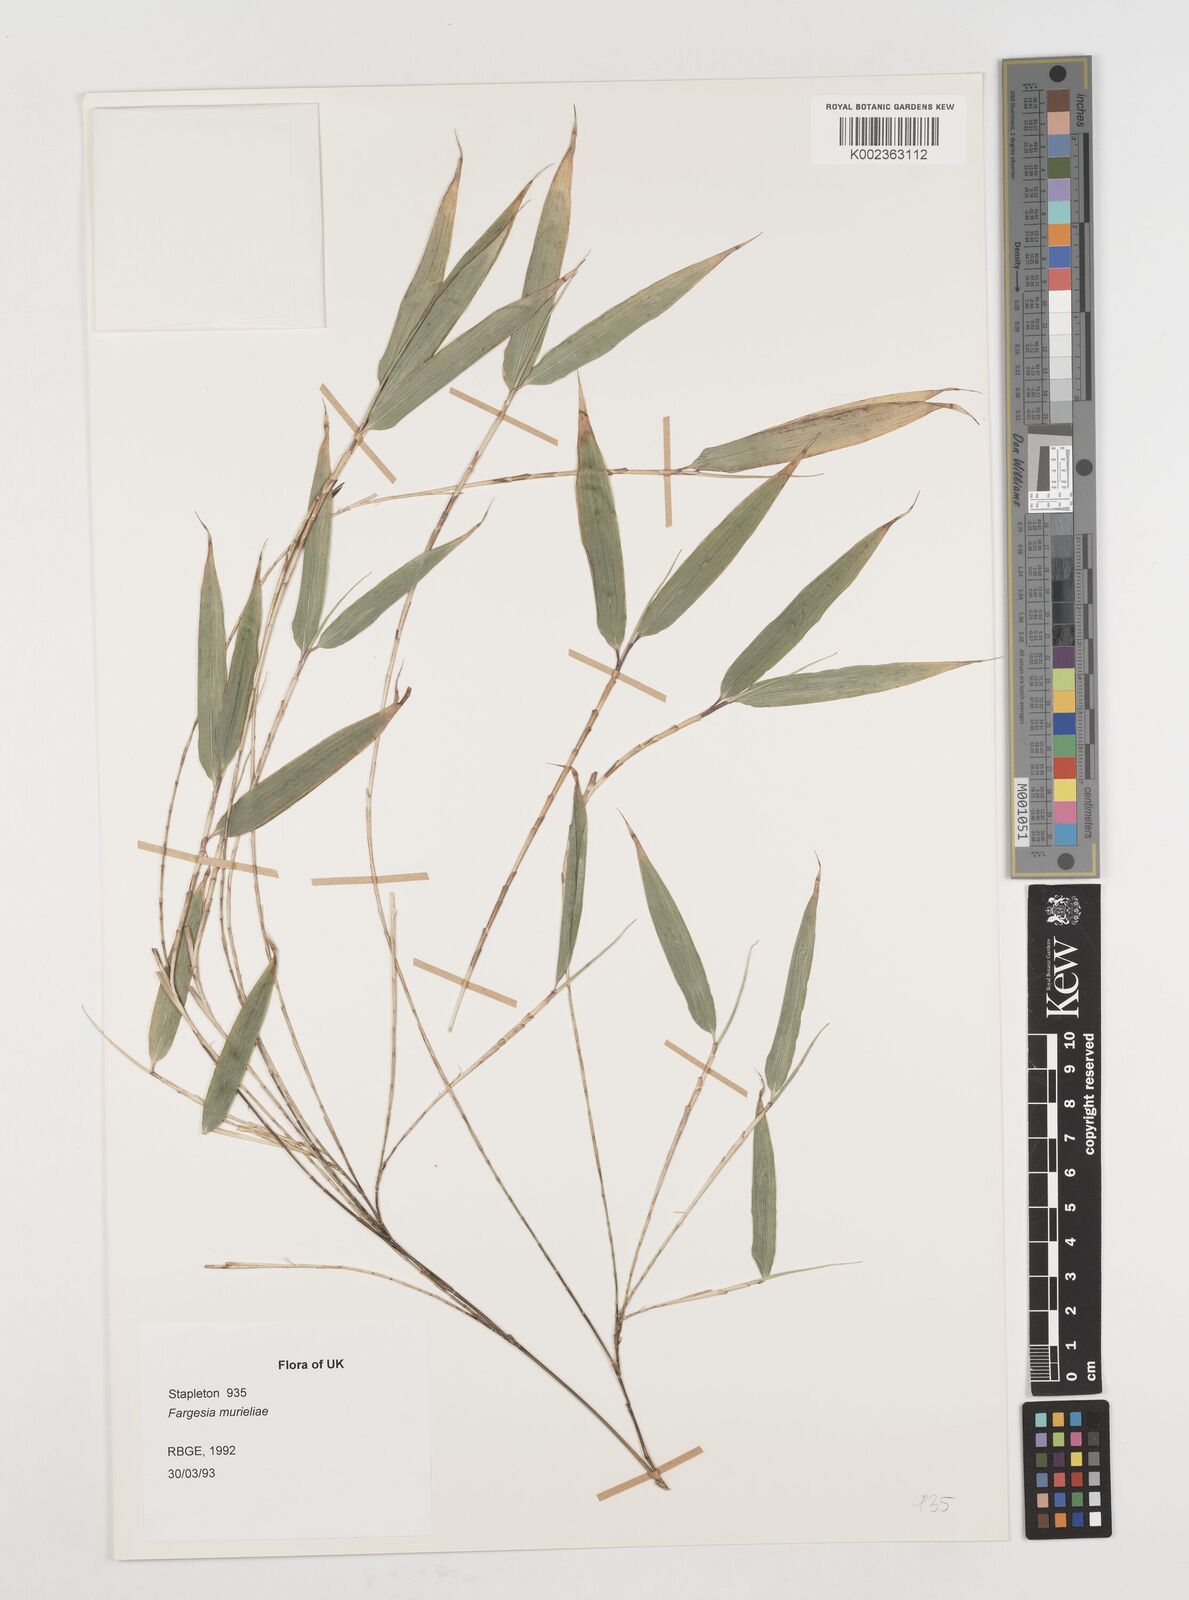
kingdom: Plantae
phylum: Tracheophyta
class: Liliopsida
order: Poales
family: Poaceae
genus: Fargesia
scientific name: Fargesia murielae
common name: Umbrella bamboo
